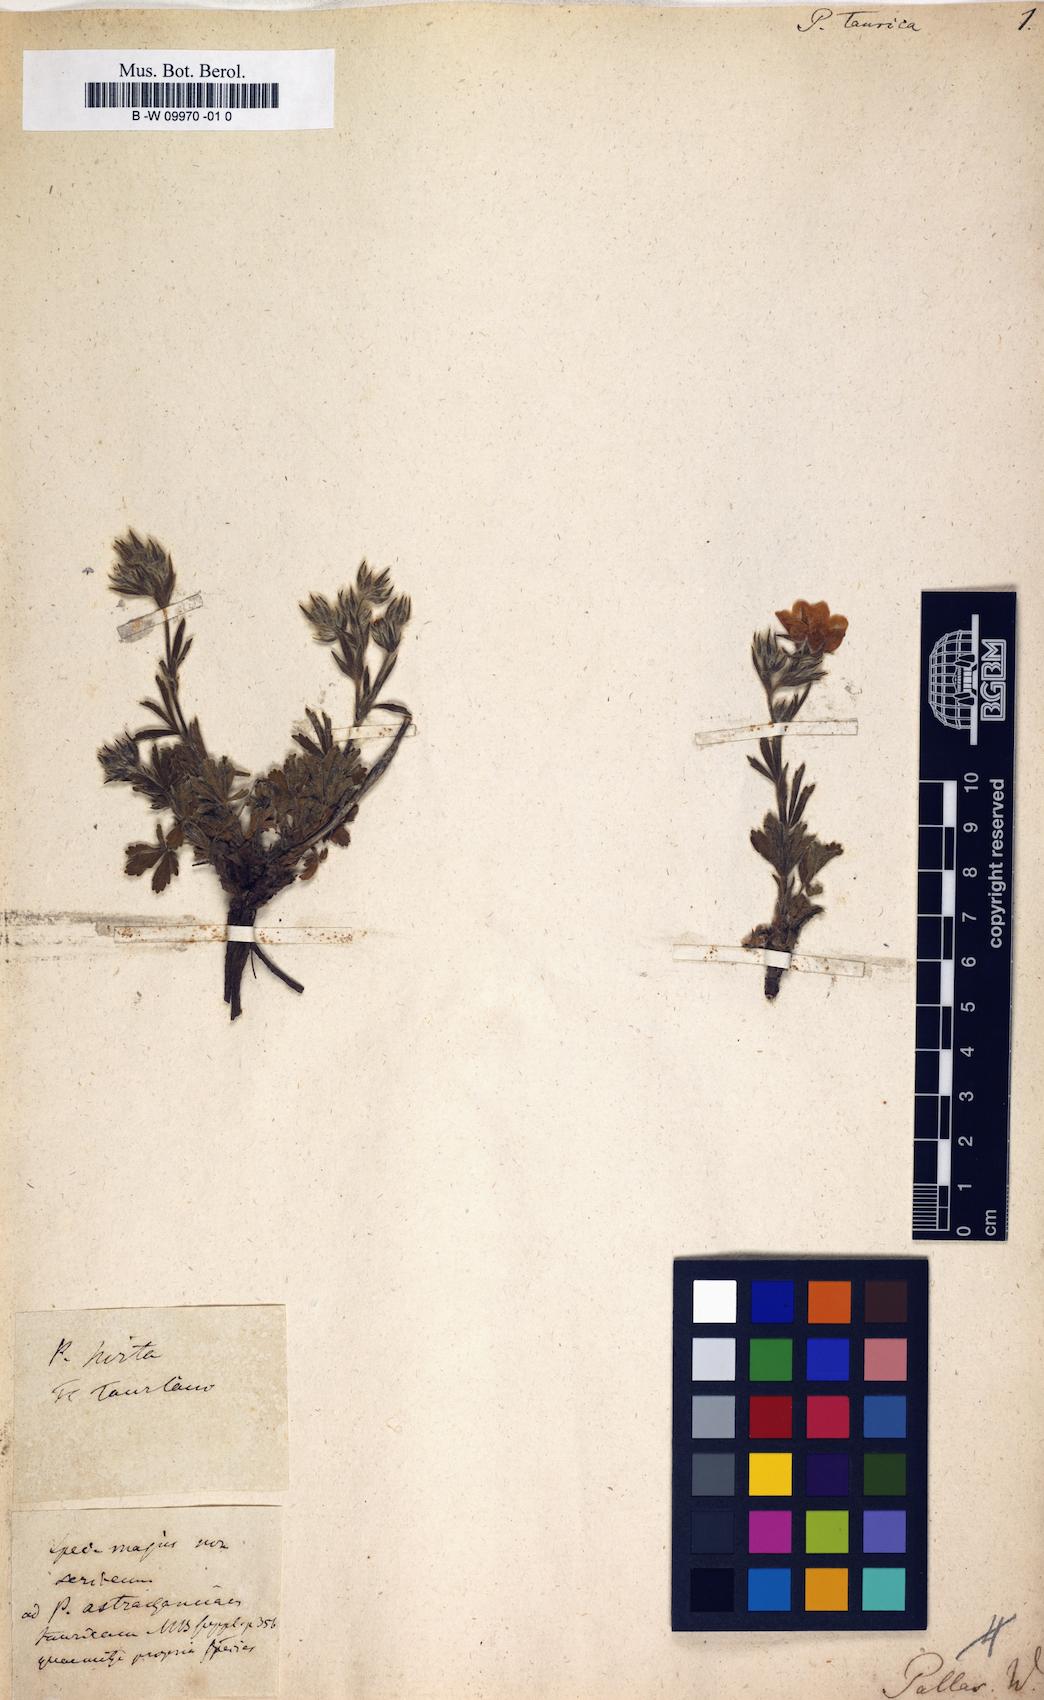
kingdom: Plantae
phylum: Tracheophyta
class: Magnoliopsida
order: Rosales
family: Rosaceae
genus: Potentilla
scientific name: Potentilla taurica
